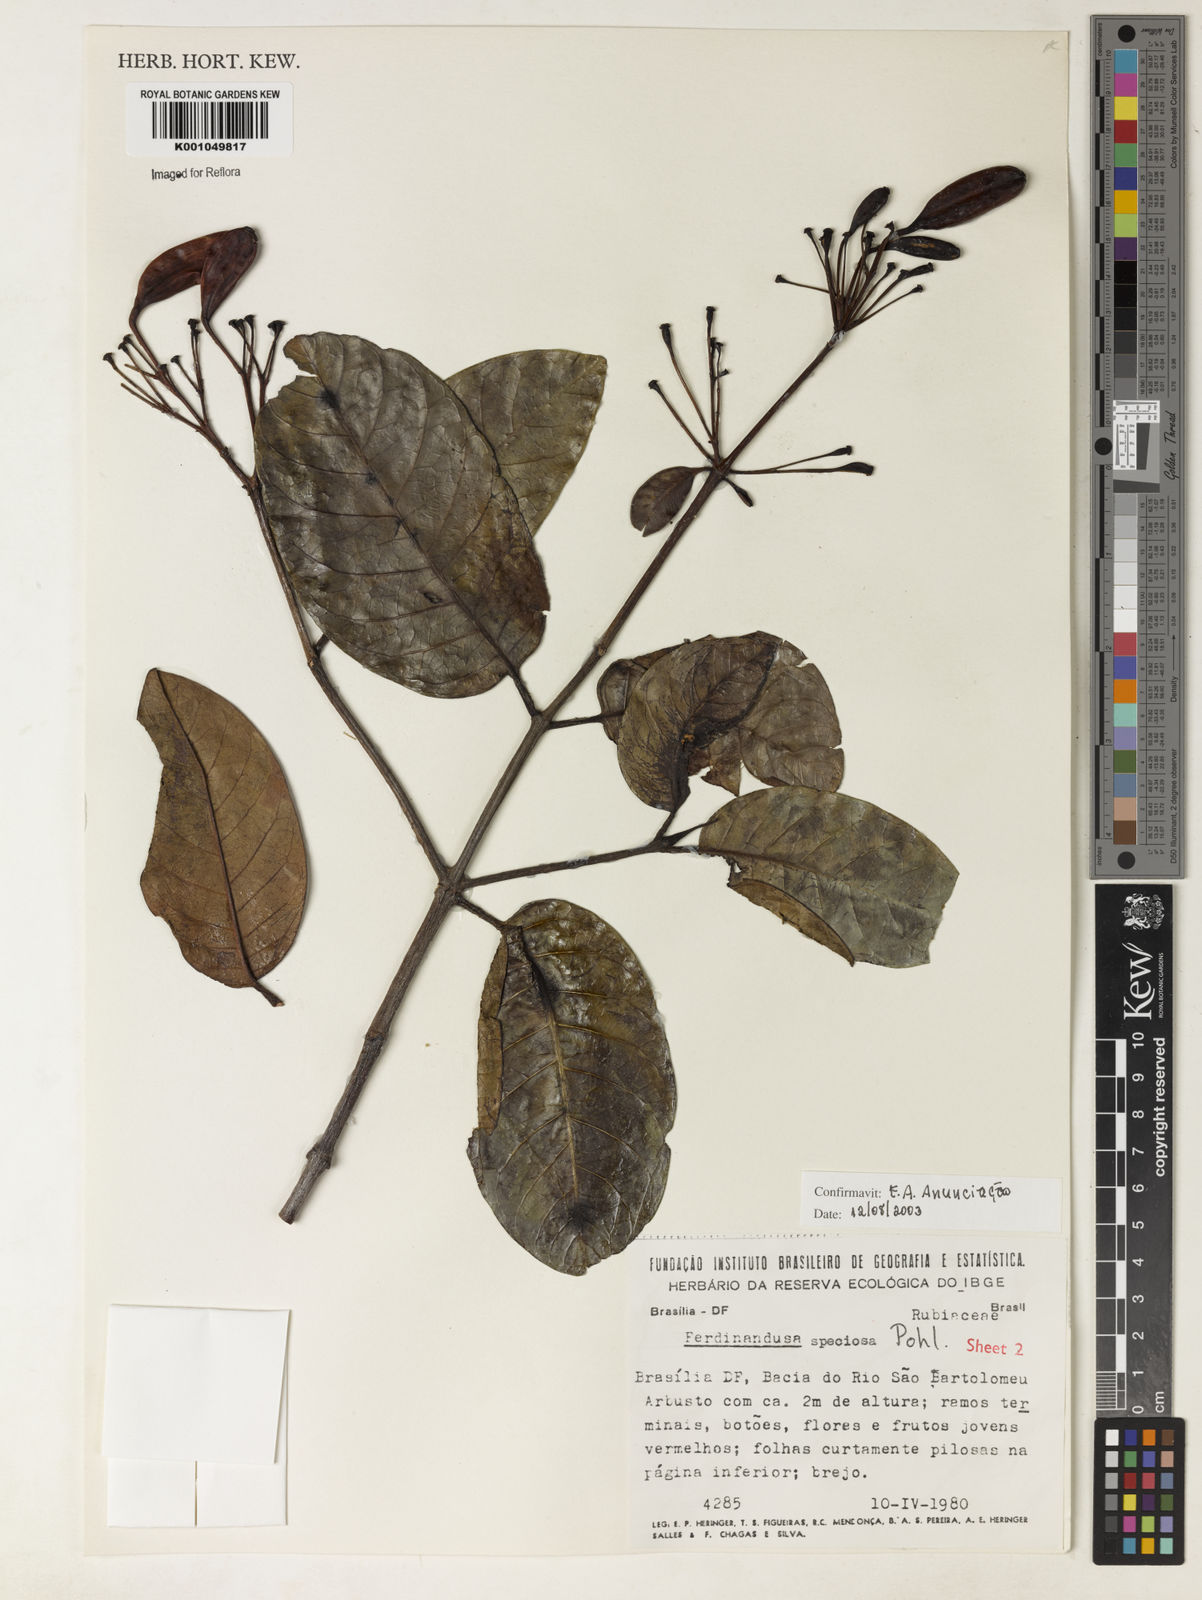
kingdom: Plantae
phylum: Tracheophyta
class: Magnoliopsida
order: Gentianales
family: Rubiaceae
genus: Ferdinandusa
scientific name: Ferdinandusa speciosa
